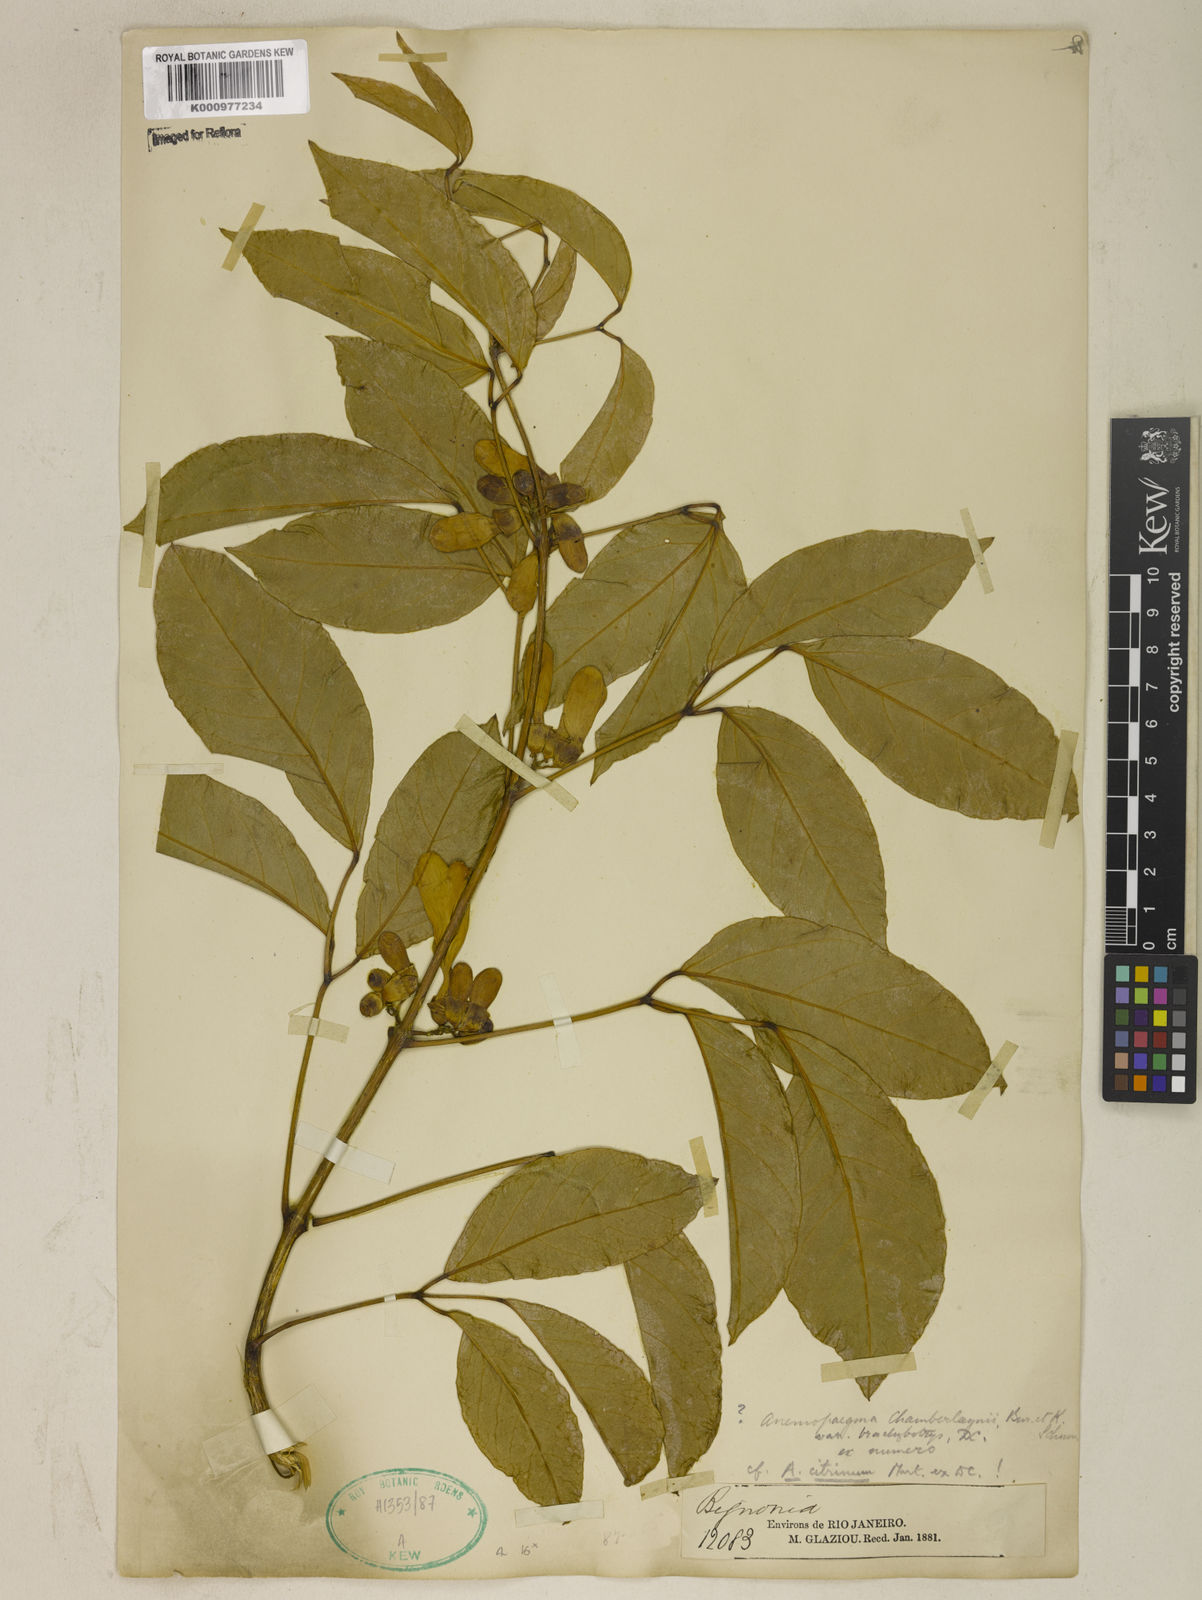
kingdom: Plantae
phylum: Tracheophyta
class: Magnoliopsida
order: Lamiales
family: Bignoniaceae
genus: Anemopaegma
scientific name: Anemopaegma citrinum
